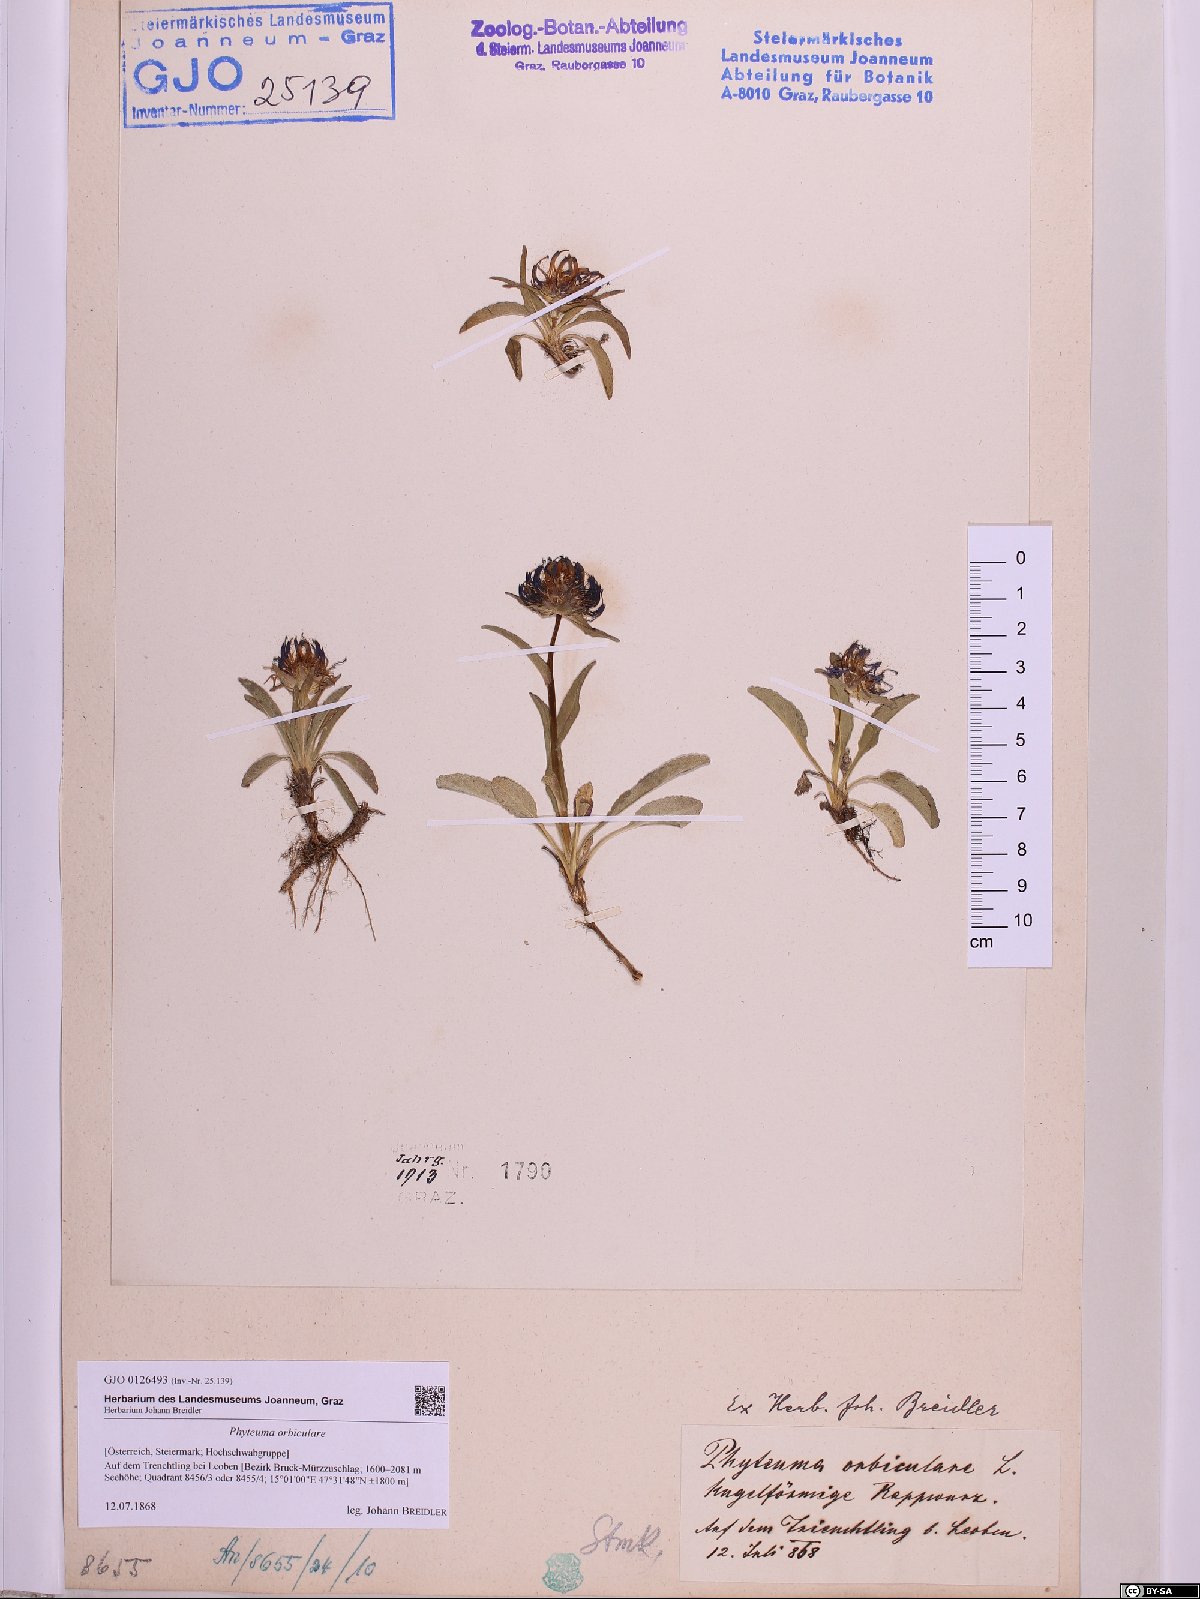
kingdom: Plantae
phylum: Tracheophyta
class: Magnoliopsida
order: Asterales
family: Campanulaceae
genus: Phyteuma
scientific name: Phyteuma orbiculare
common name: Round-headed rampion
